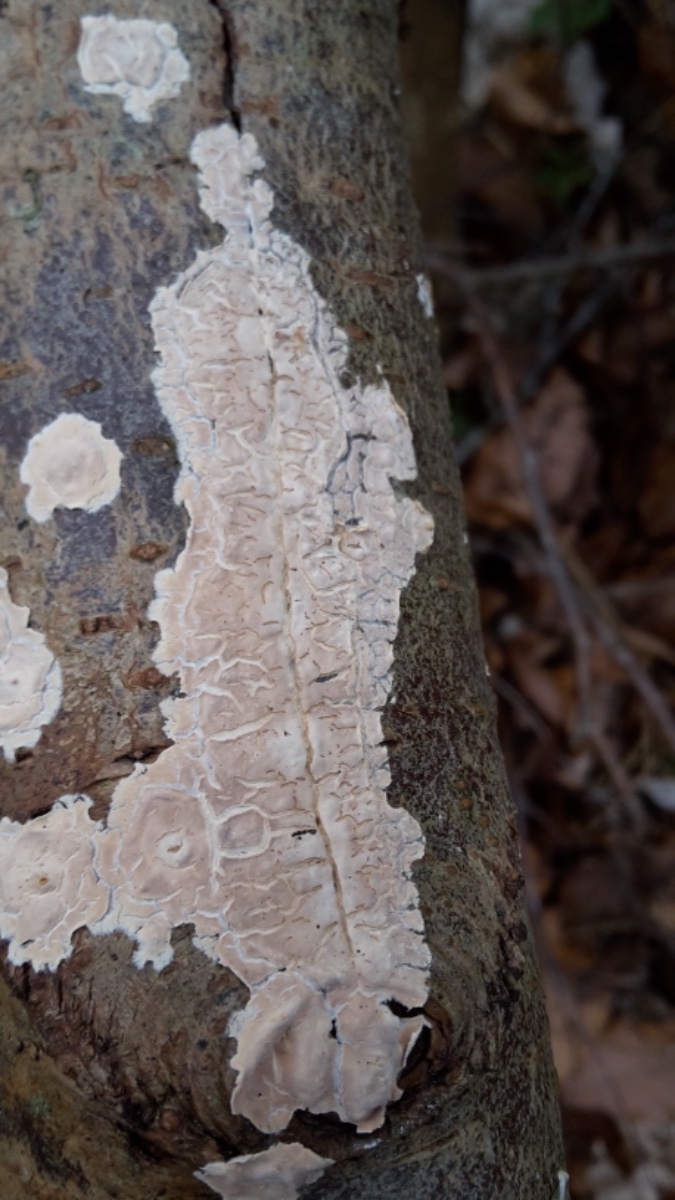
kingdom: Fungi
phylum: Basidiomycota
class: Agaricomycetes
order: Agaricales
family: Physalacriaceae
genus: Cylindrobasidium
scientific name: Cylindrobasidium evolvens
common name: sprækkehinde
